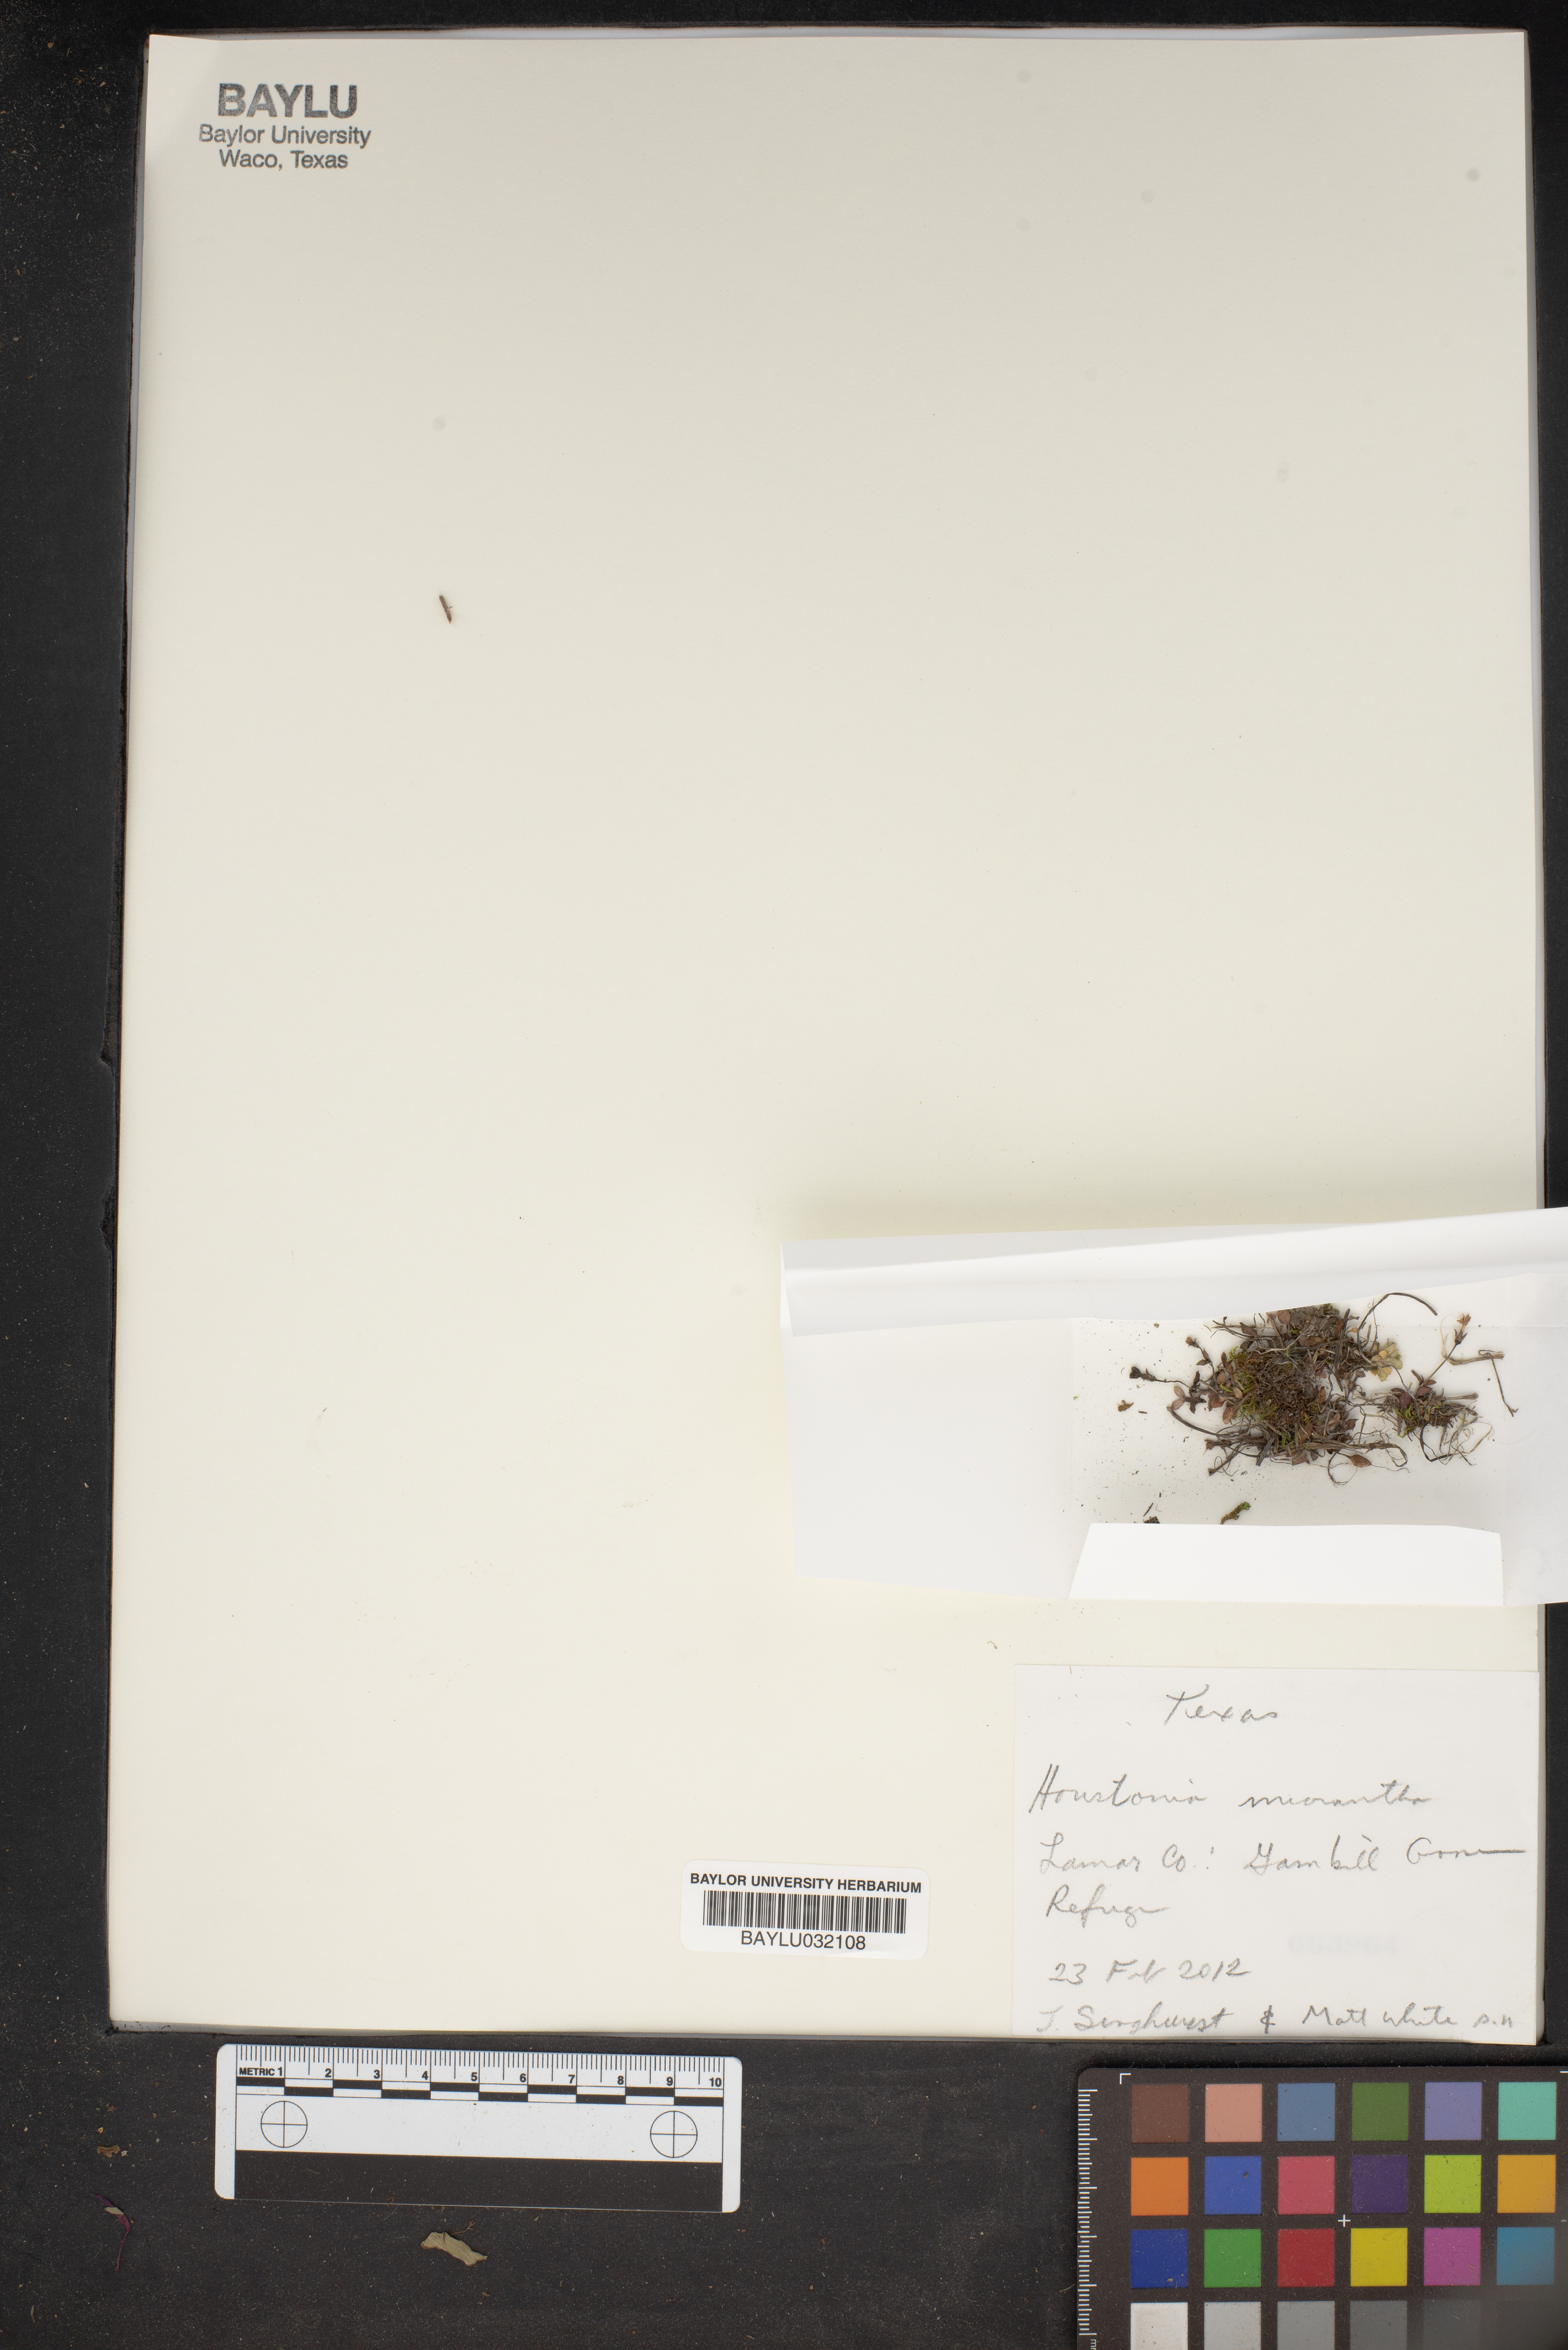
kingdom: Plantae
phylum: Tracheophyta
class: Magnoliopsida
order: Gentianales
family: Rubiaceae
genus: Houstonia
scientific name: Houstonia micrantha
